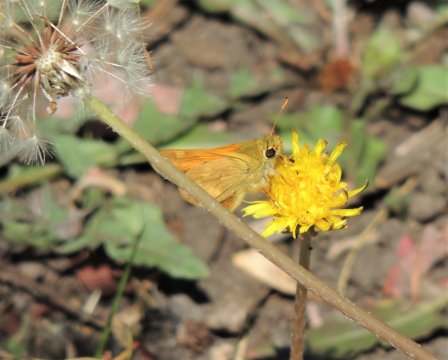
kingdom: Animalia
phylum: Arthropoda
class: Insecta
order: Lepidoptera
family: Hesperiidae
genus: Ochlodes
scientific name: Ochlodes sylvanoides
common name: Woodland Skipper
